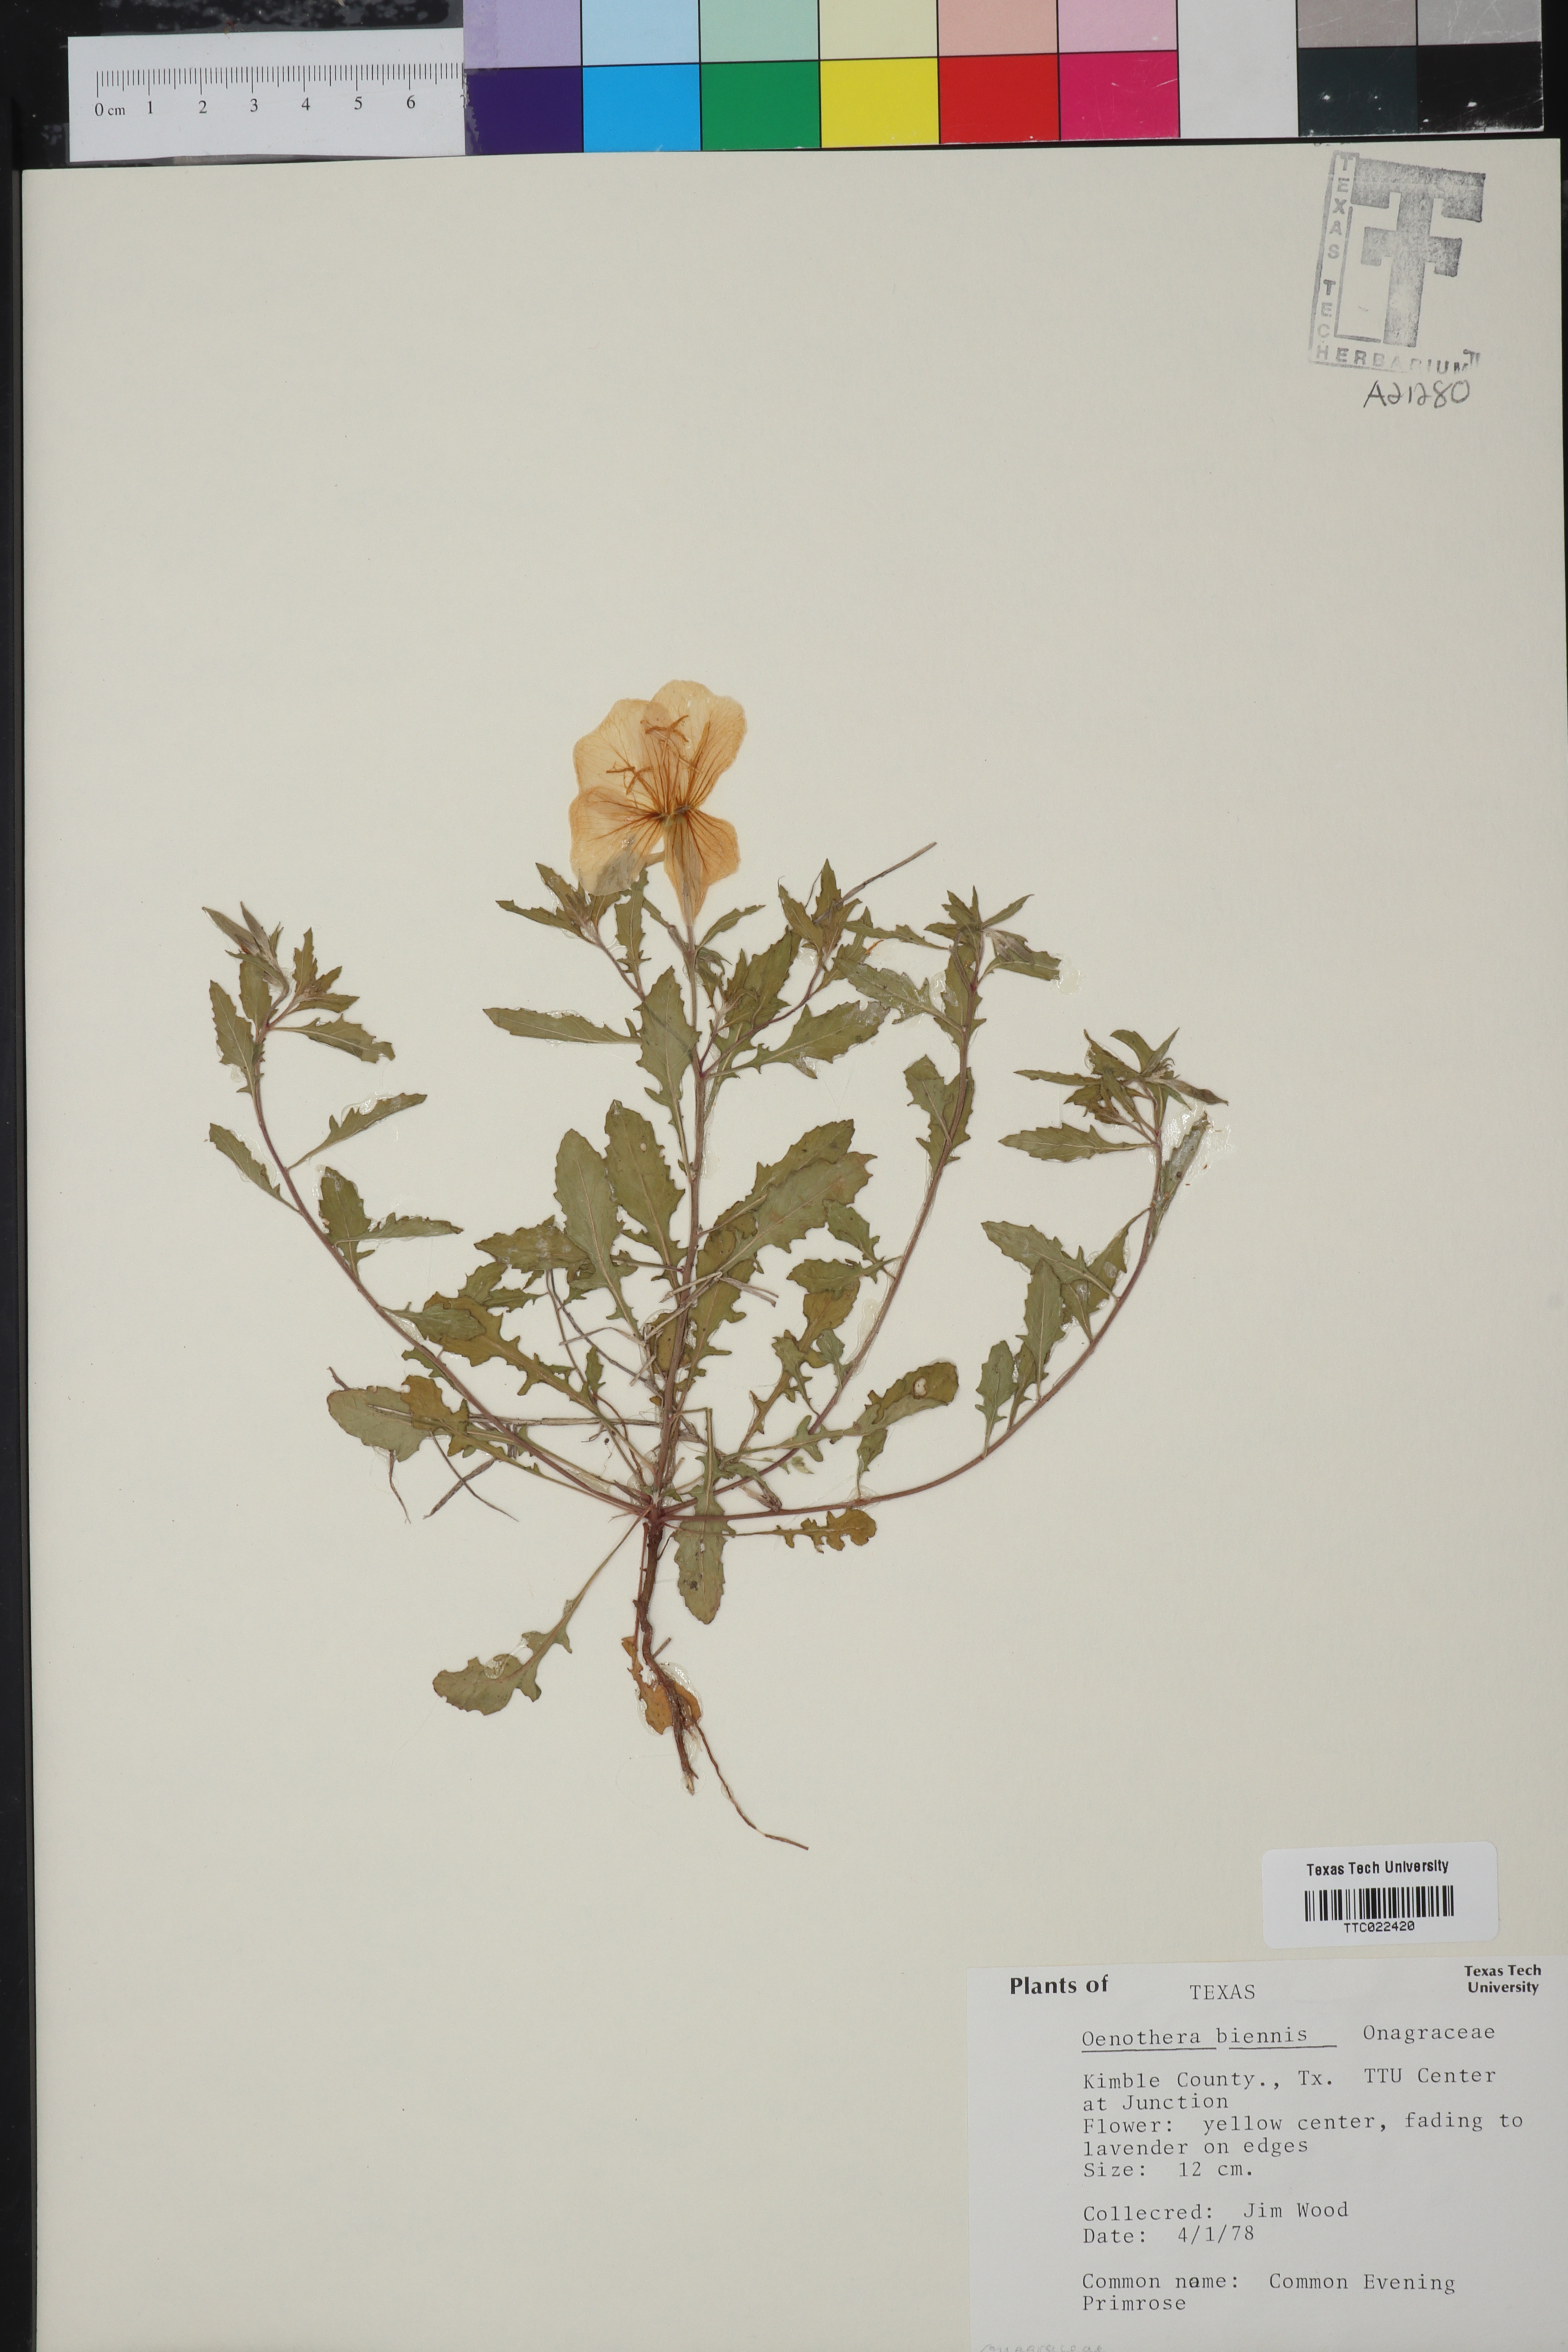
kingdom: Plantae
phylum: Tracheophyta
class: Magnoliopsida
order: Myrtales
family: Onagraceae
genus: Oenothera
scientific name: Oenothera biennis
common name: Common evening-primrose
